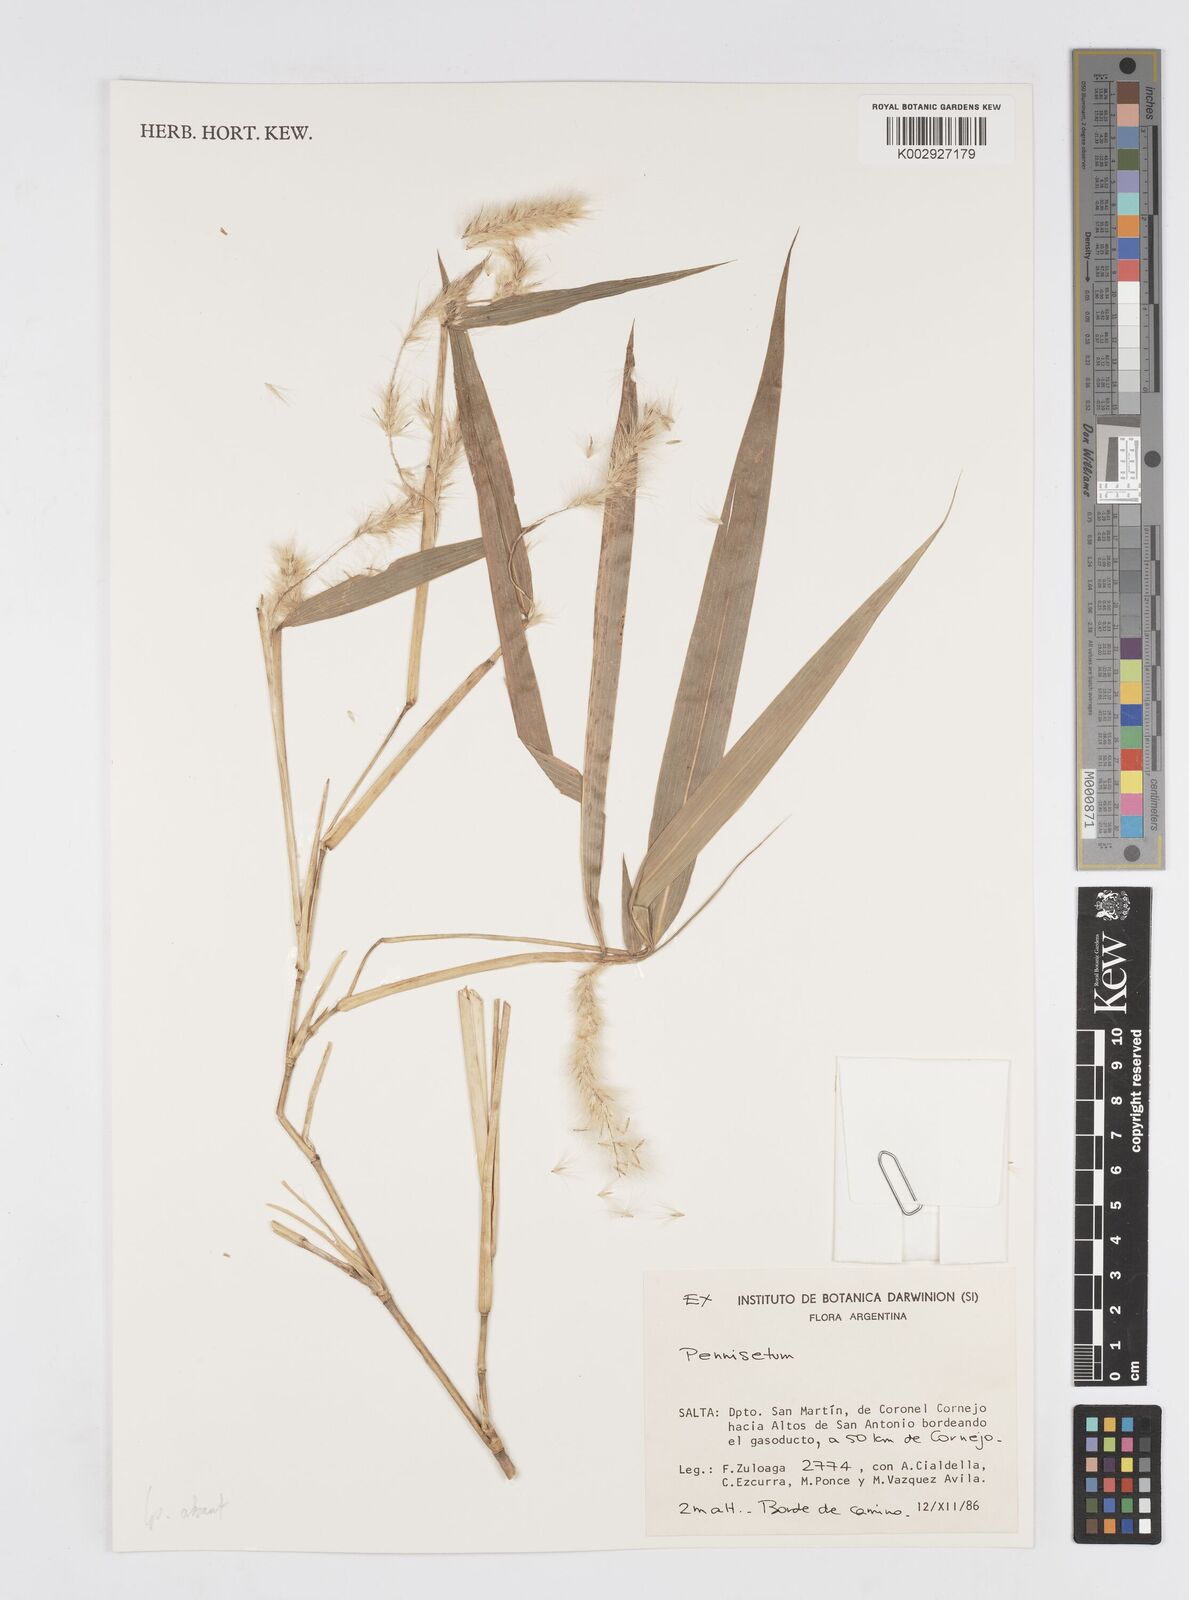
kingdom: Plantae
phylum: Tracheophyta
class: Liliopsida
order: Poales
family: Poaceae
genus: Cenchrus
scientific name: Cenchrus tristachyus
